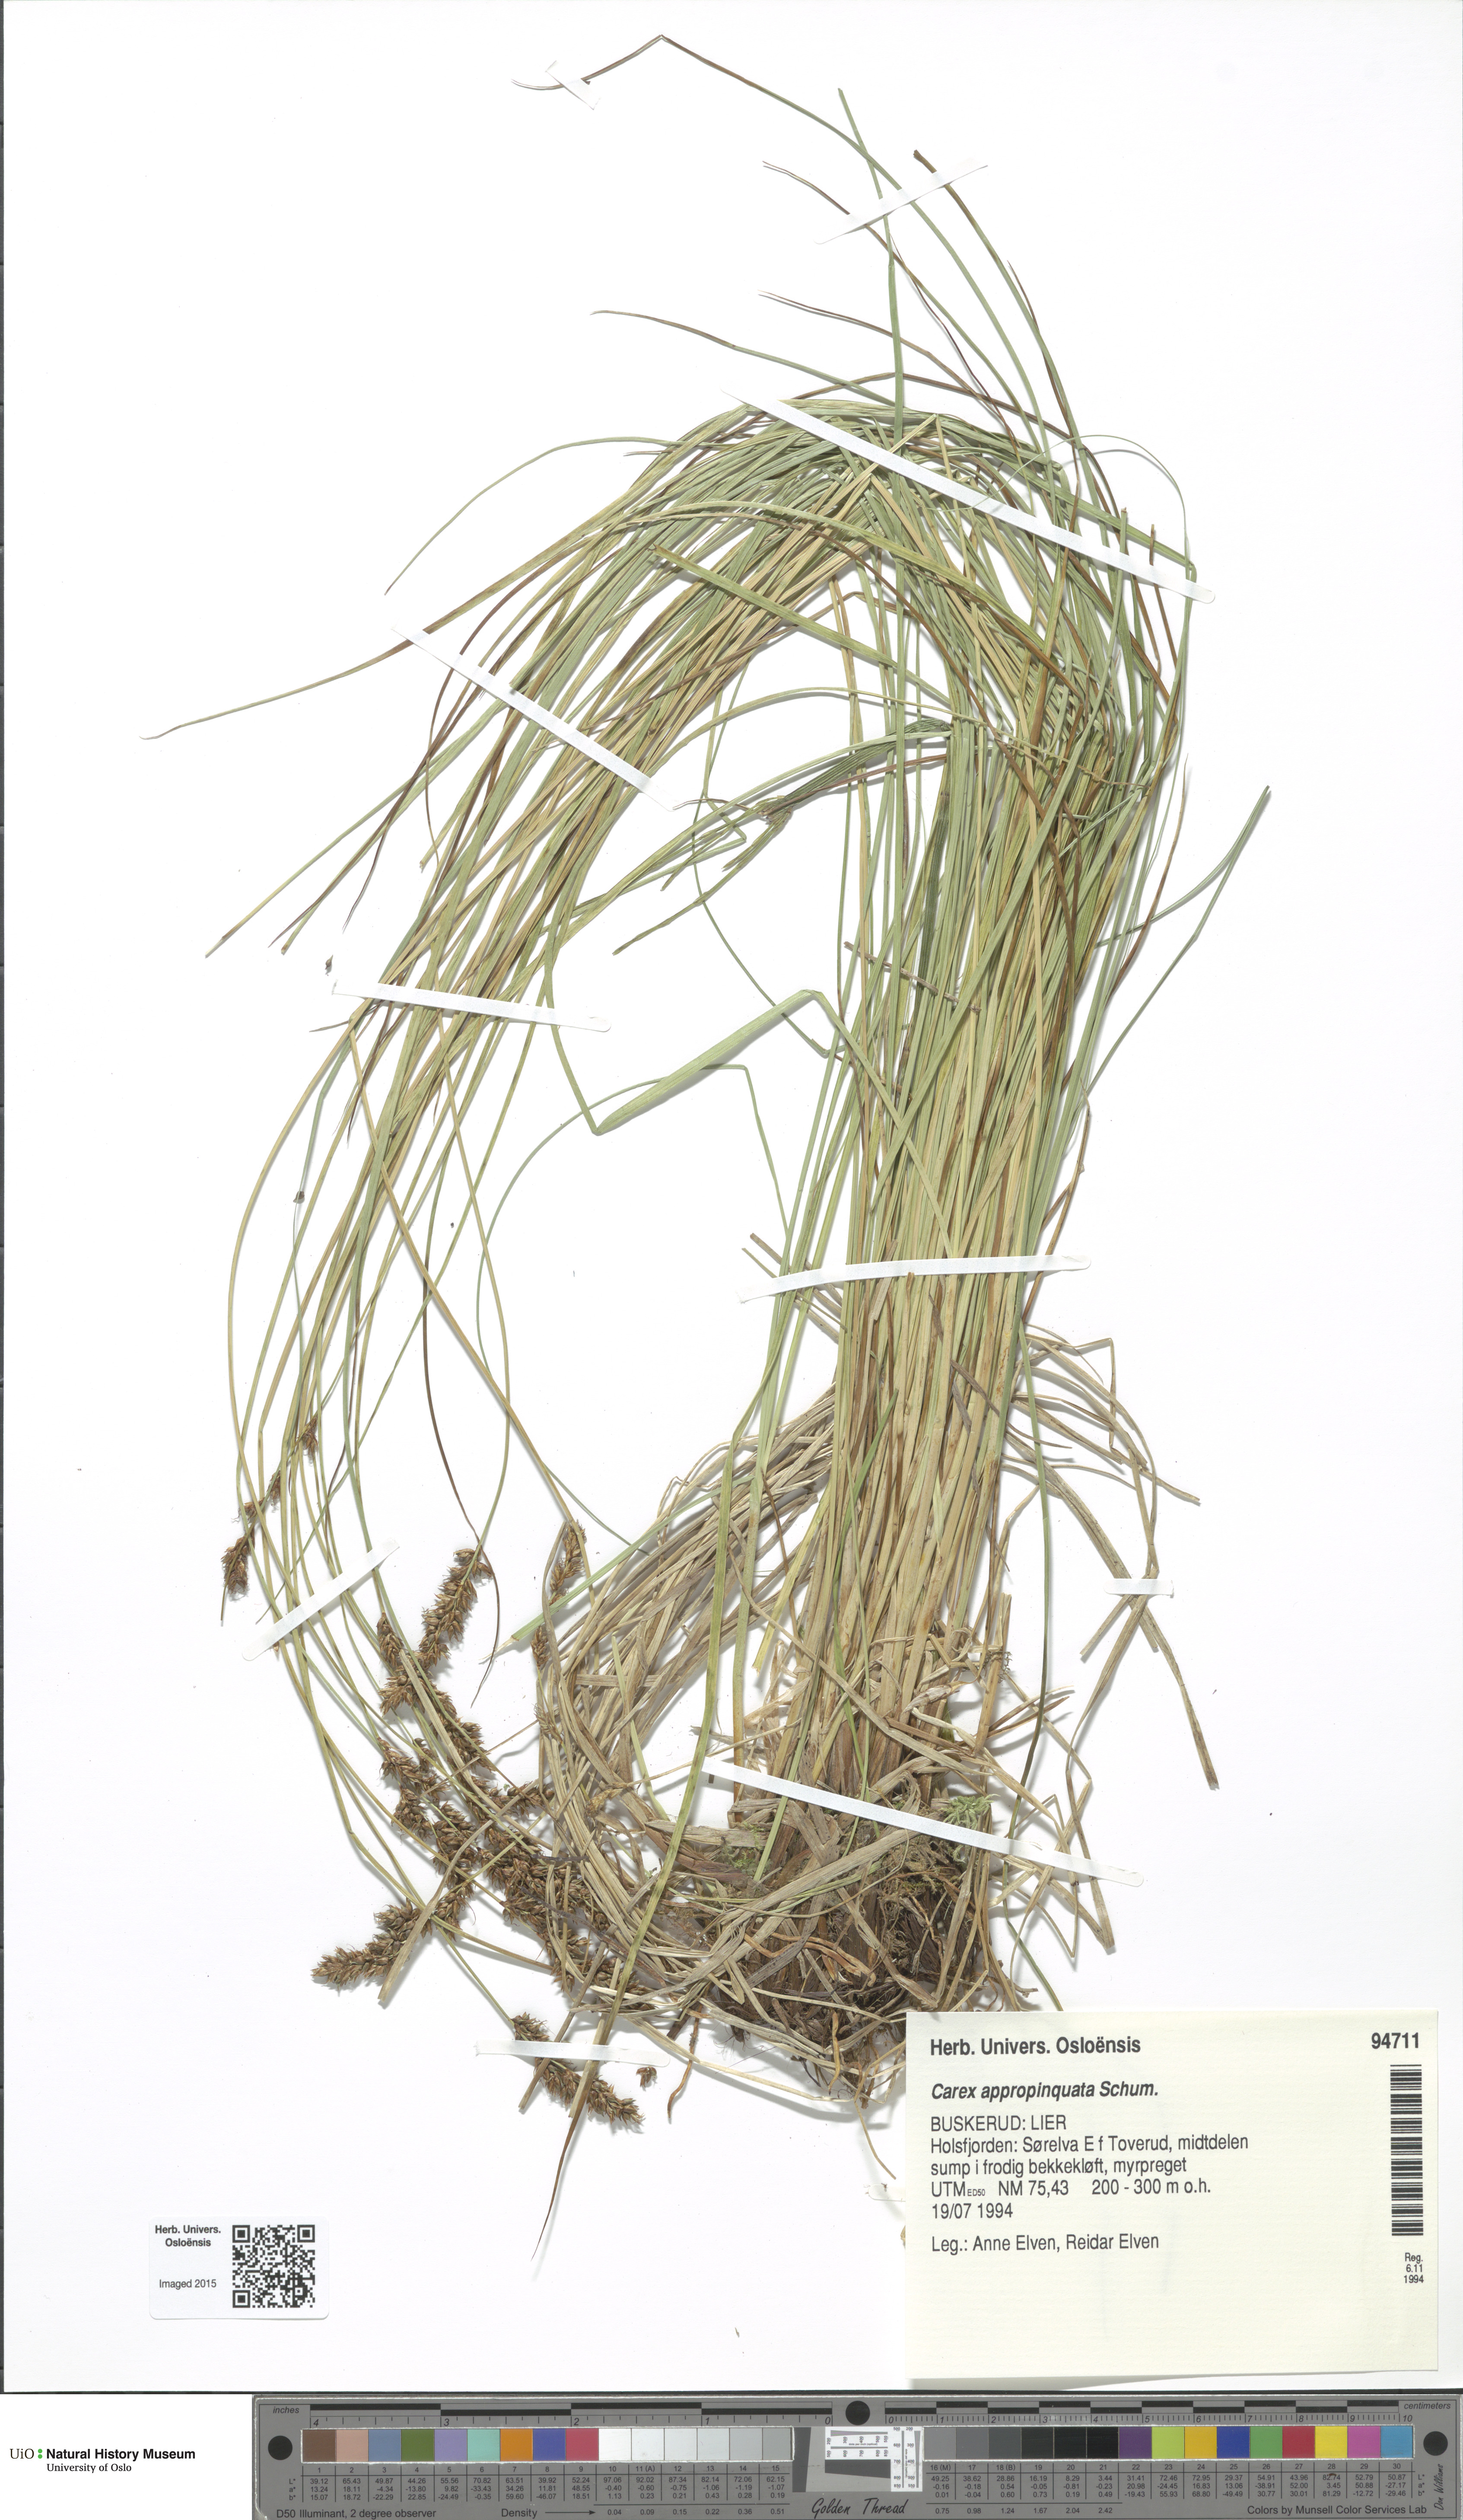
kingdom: Plantae
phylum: Tracheophyta
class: Liliopsida
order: Poales
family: Cyperaceae
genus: Carex
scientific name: Carex appropinquata
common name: Fibrous tussock-sedge
